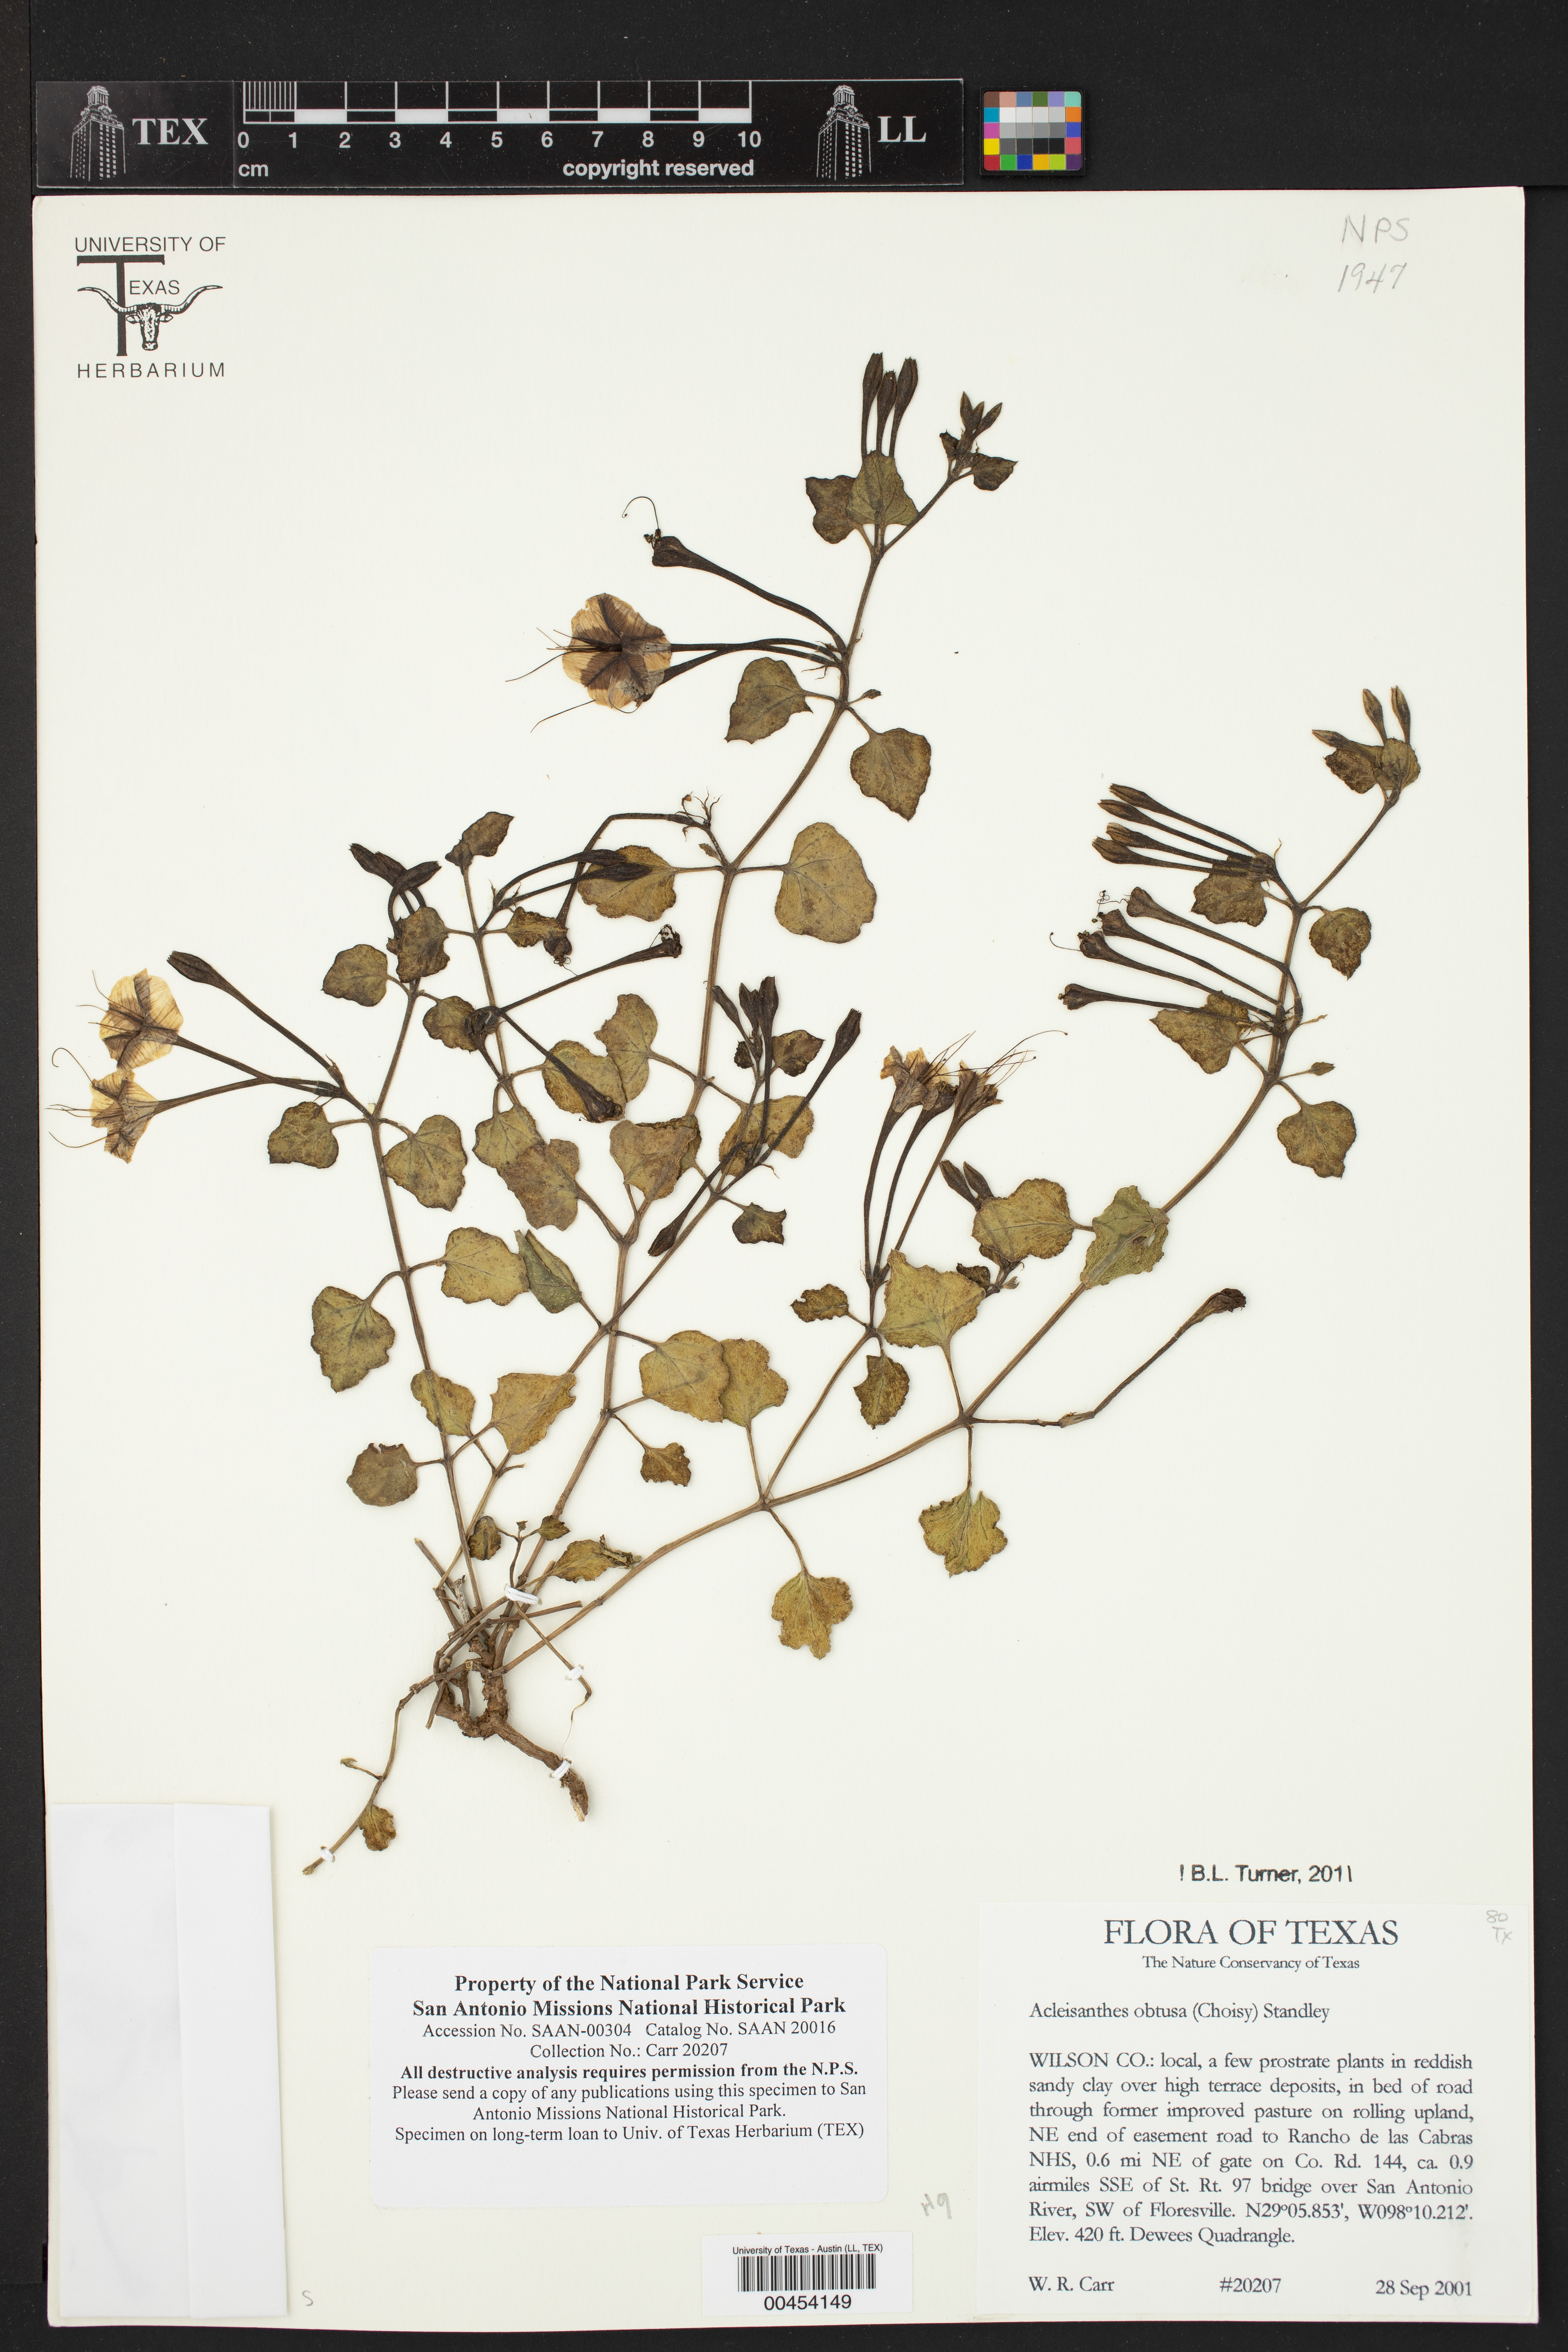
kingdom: Plantae
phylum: Tracheophyta
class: Magnoliopsida
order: Caryophyllales
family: Nyctaginaceae
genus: Acleisanthes
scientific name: Acleisanthes obtusa
